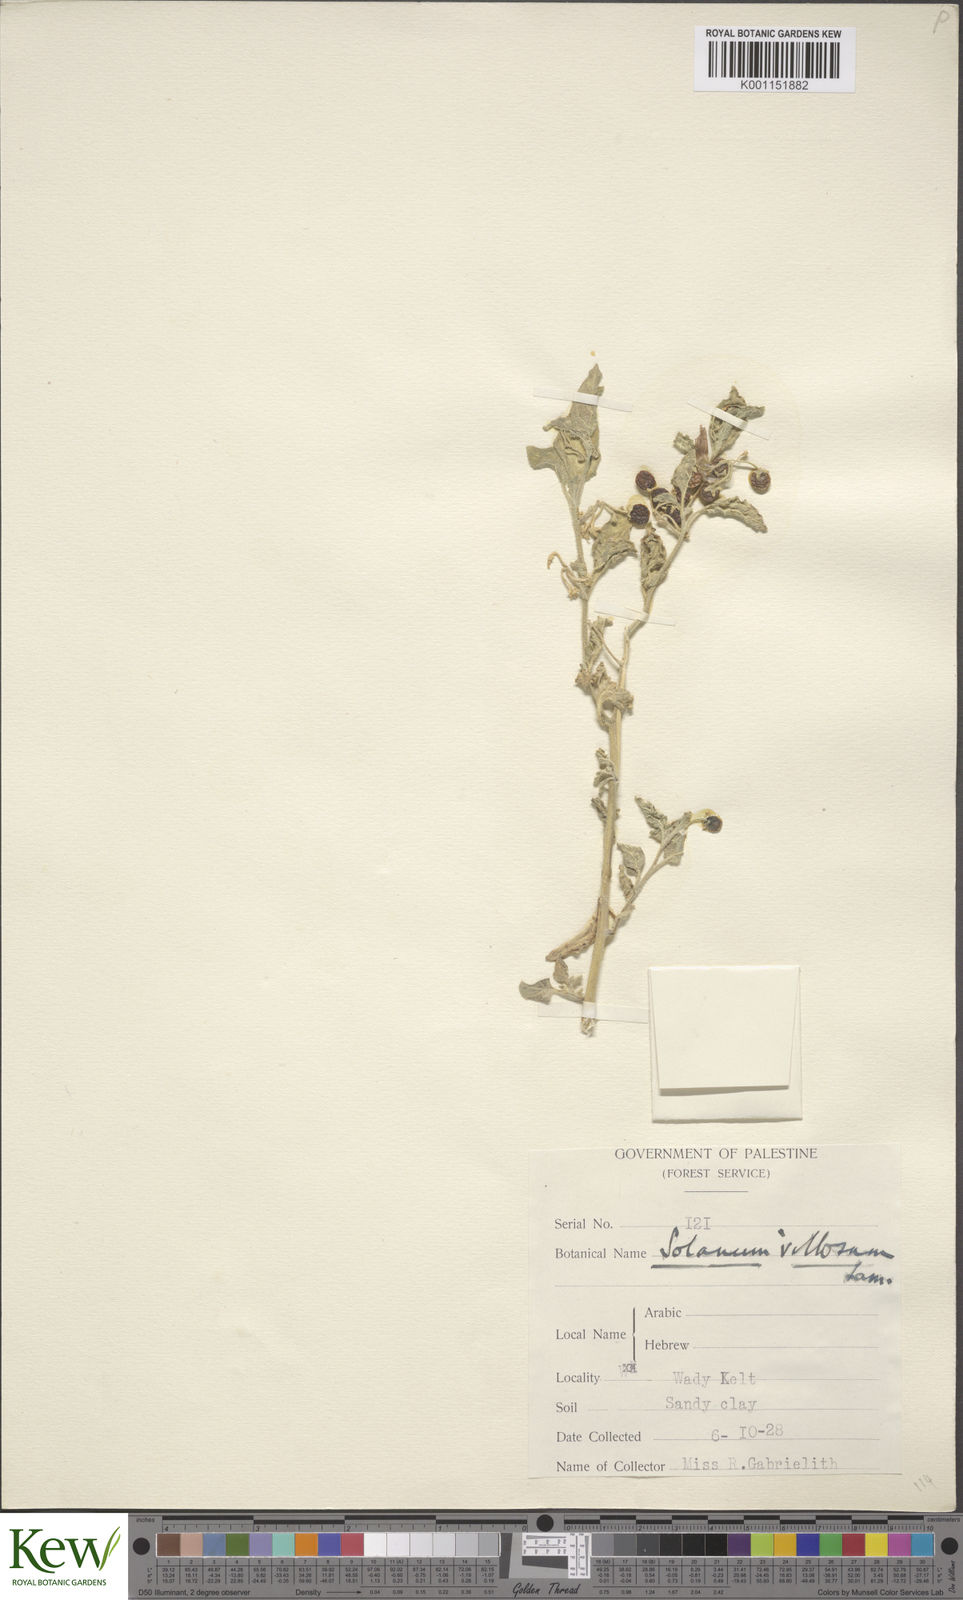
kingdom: Plantae
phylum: Tracheophyta
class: Magnoliopsida
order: Solanales
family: Solanaceae
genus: Solanum
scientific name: Solanum villosum
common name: Red nightshade
